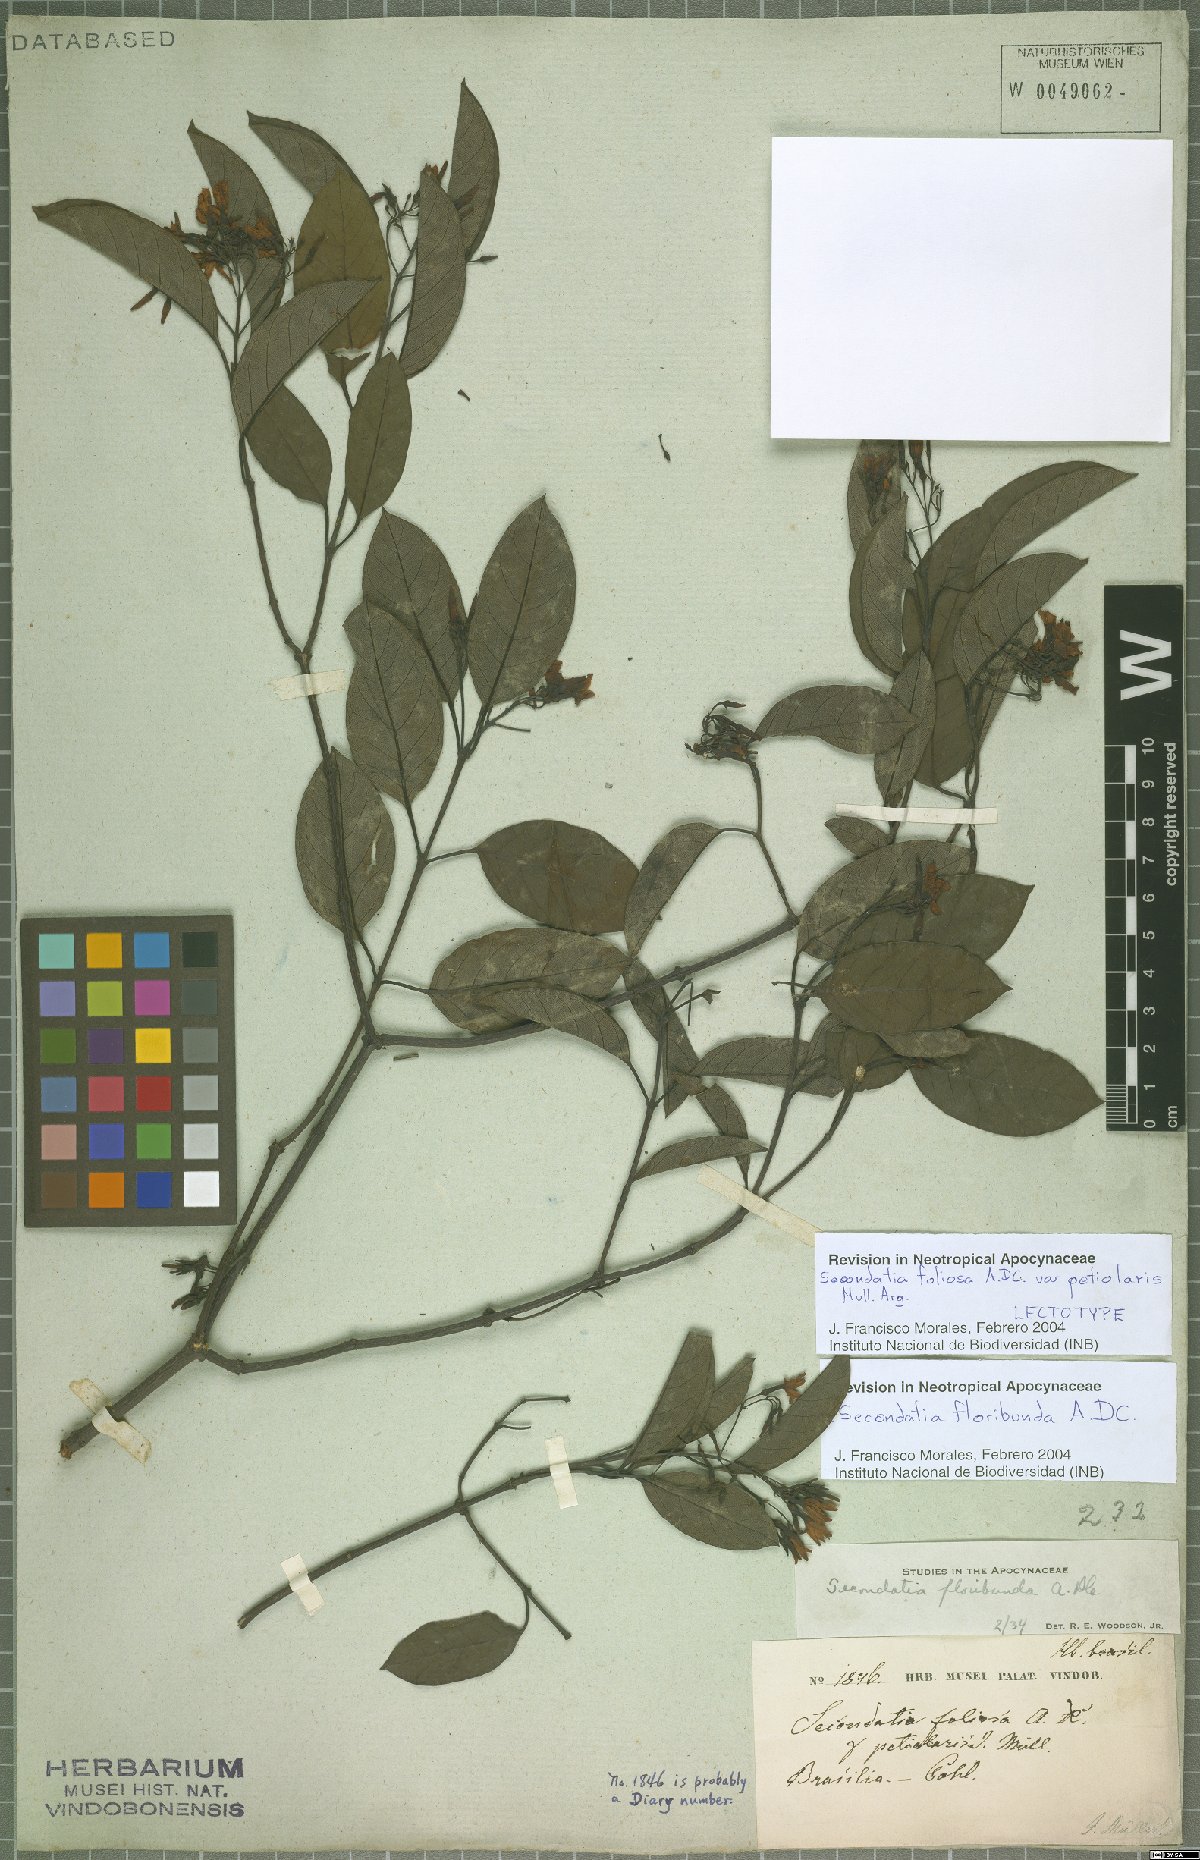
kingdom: Plantae
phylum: Tracheophyta
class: Magnoliopsida
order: Gentianales
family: Apocynaceae
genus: Secondatia
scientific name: Secondatia floribunda
